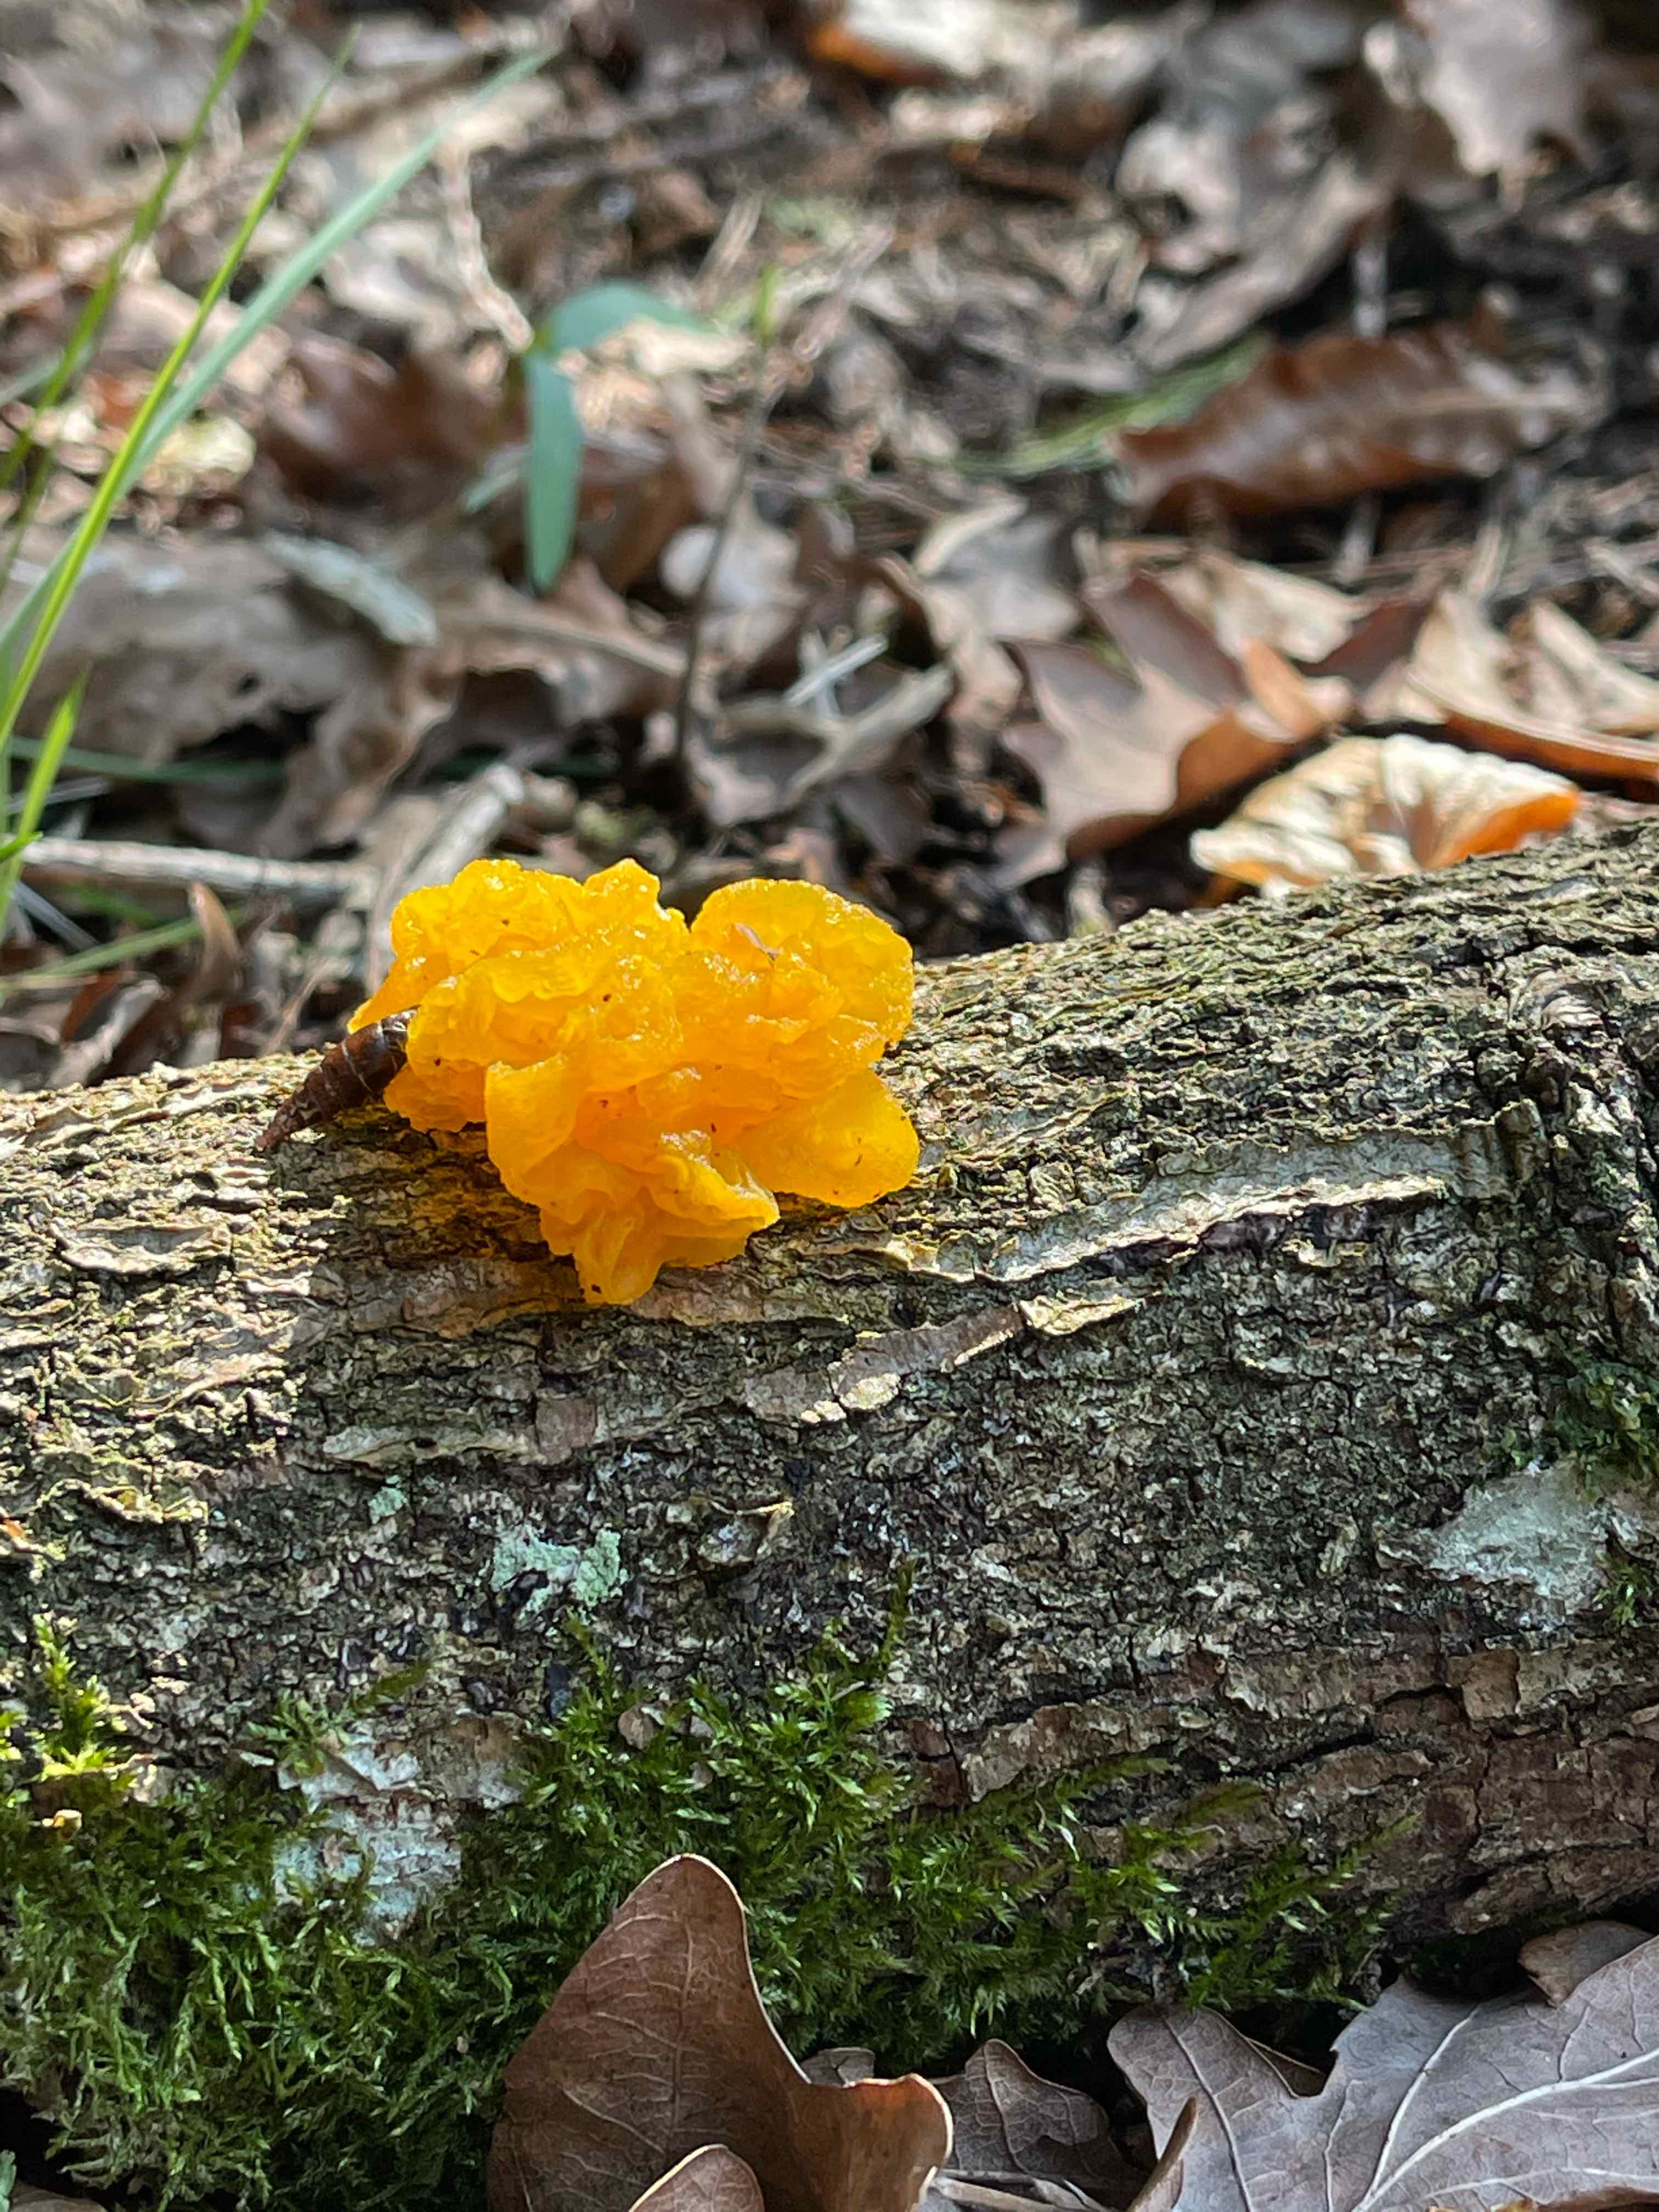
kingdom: Fungi
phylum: Basidiomycota
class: Tremellomycetes
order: Tremellales
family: Tremellaceae
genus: Tremella
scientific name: Tremella mesenterica
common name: gul bævresvamp
